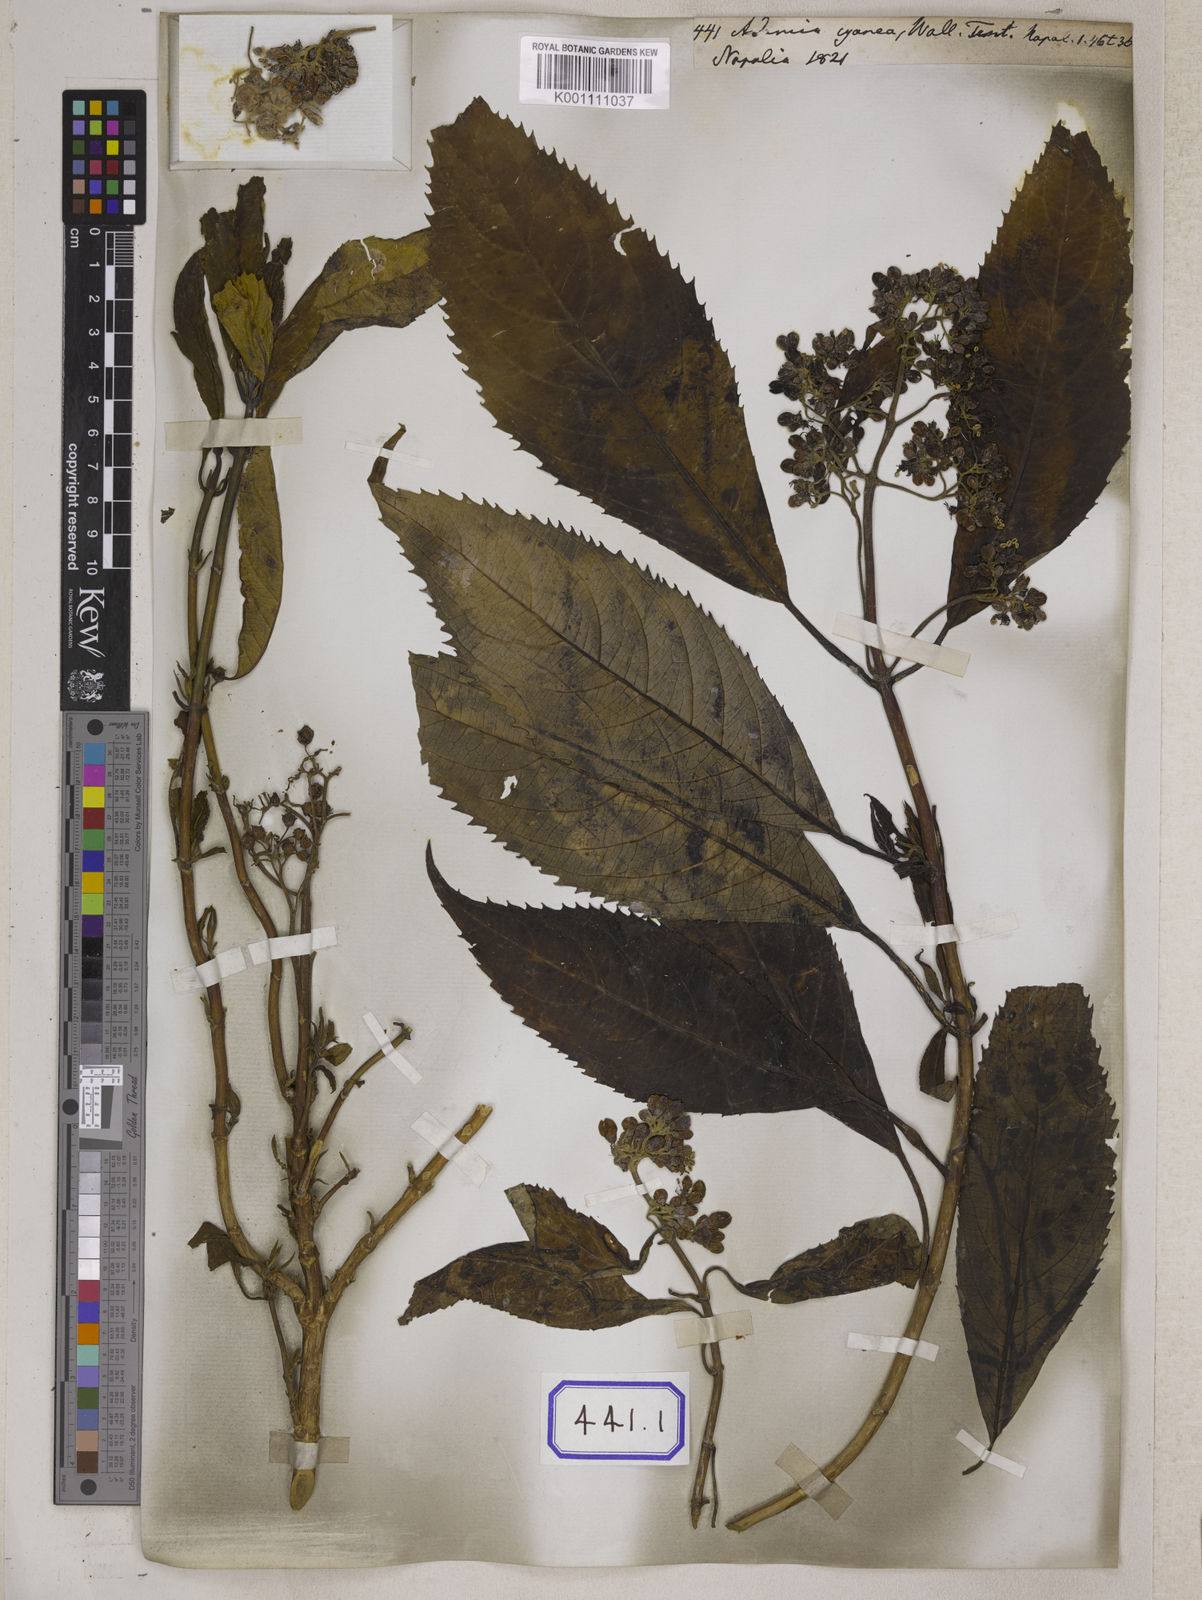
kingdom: Plantae
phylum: Tracheophyta
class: Magnoliopsida
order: Cornales
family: Hydrangeaceae
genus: Hydrangea
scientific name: Hydrangea febrifuga
